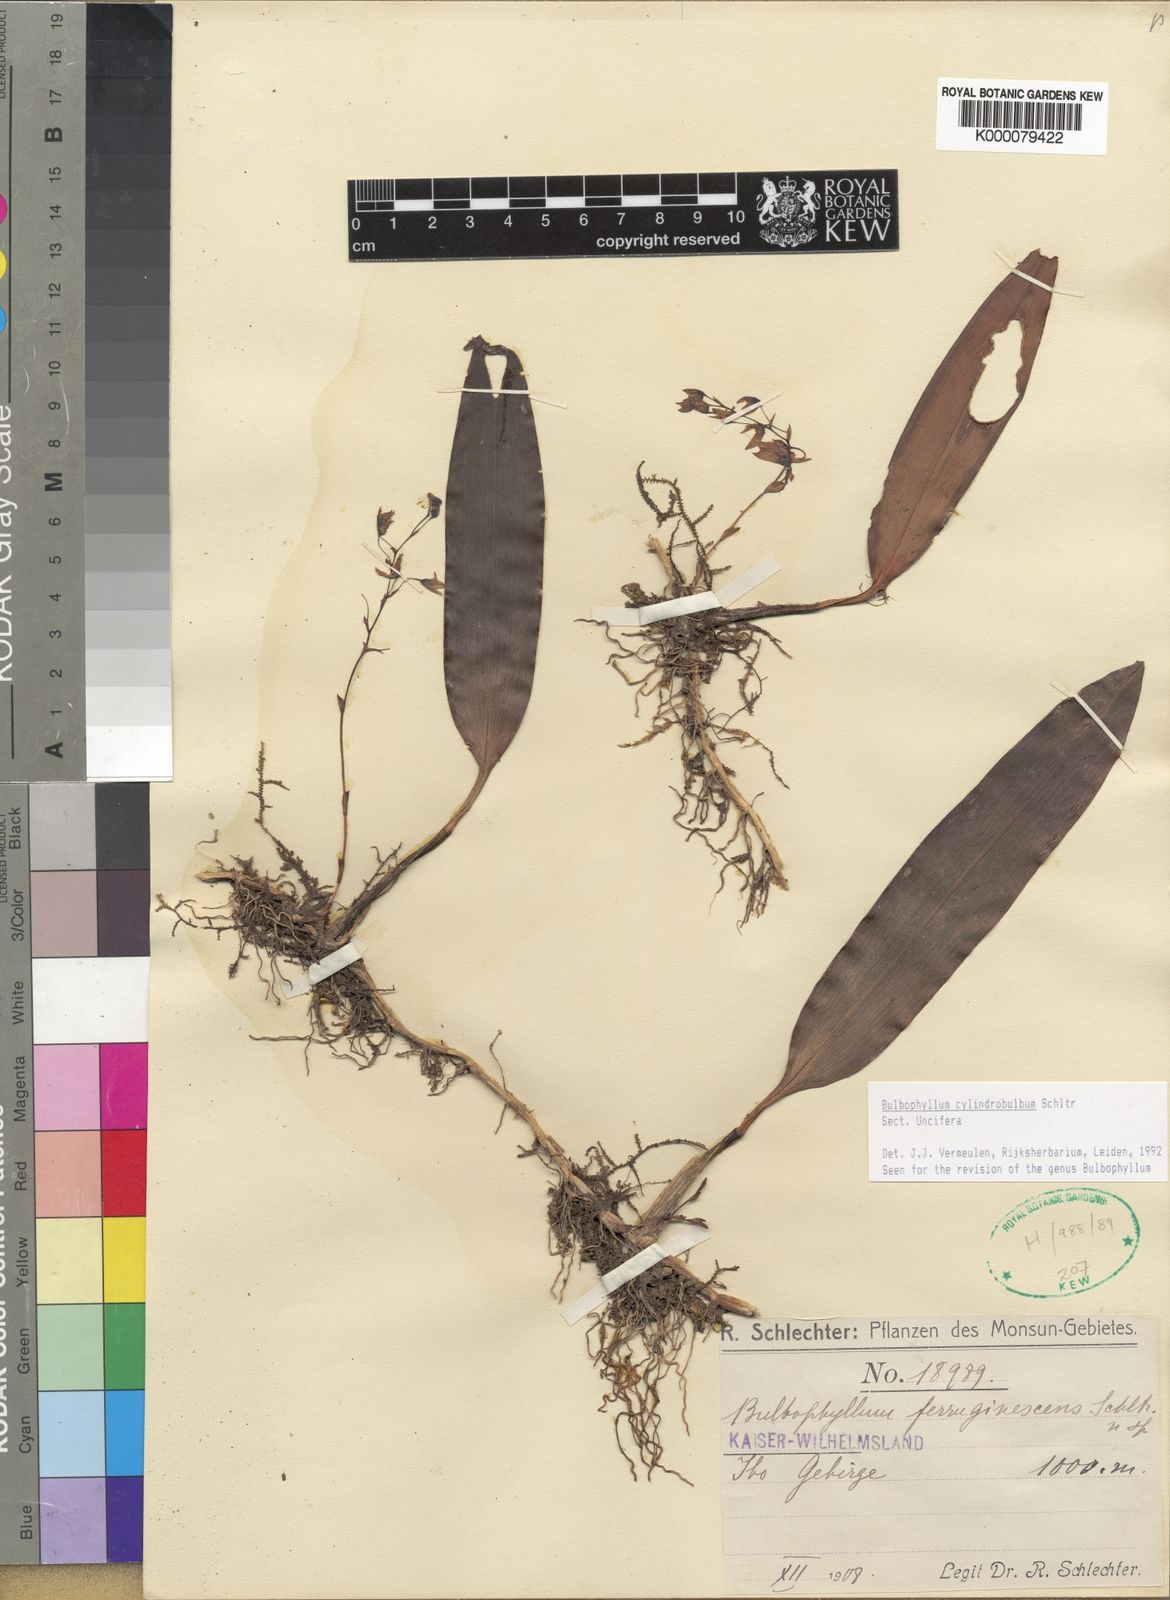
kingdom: Plantae
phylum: Tracheophyta
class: Liliopsida
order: Asparagales
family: Orchidaceae
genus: Bulbophyllum
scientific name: Bulbophyllum cylindrobulbum
